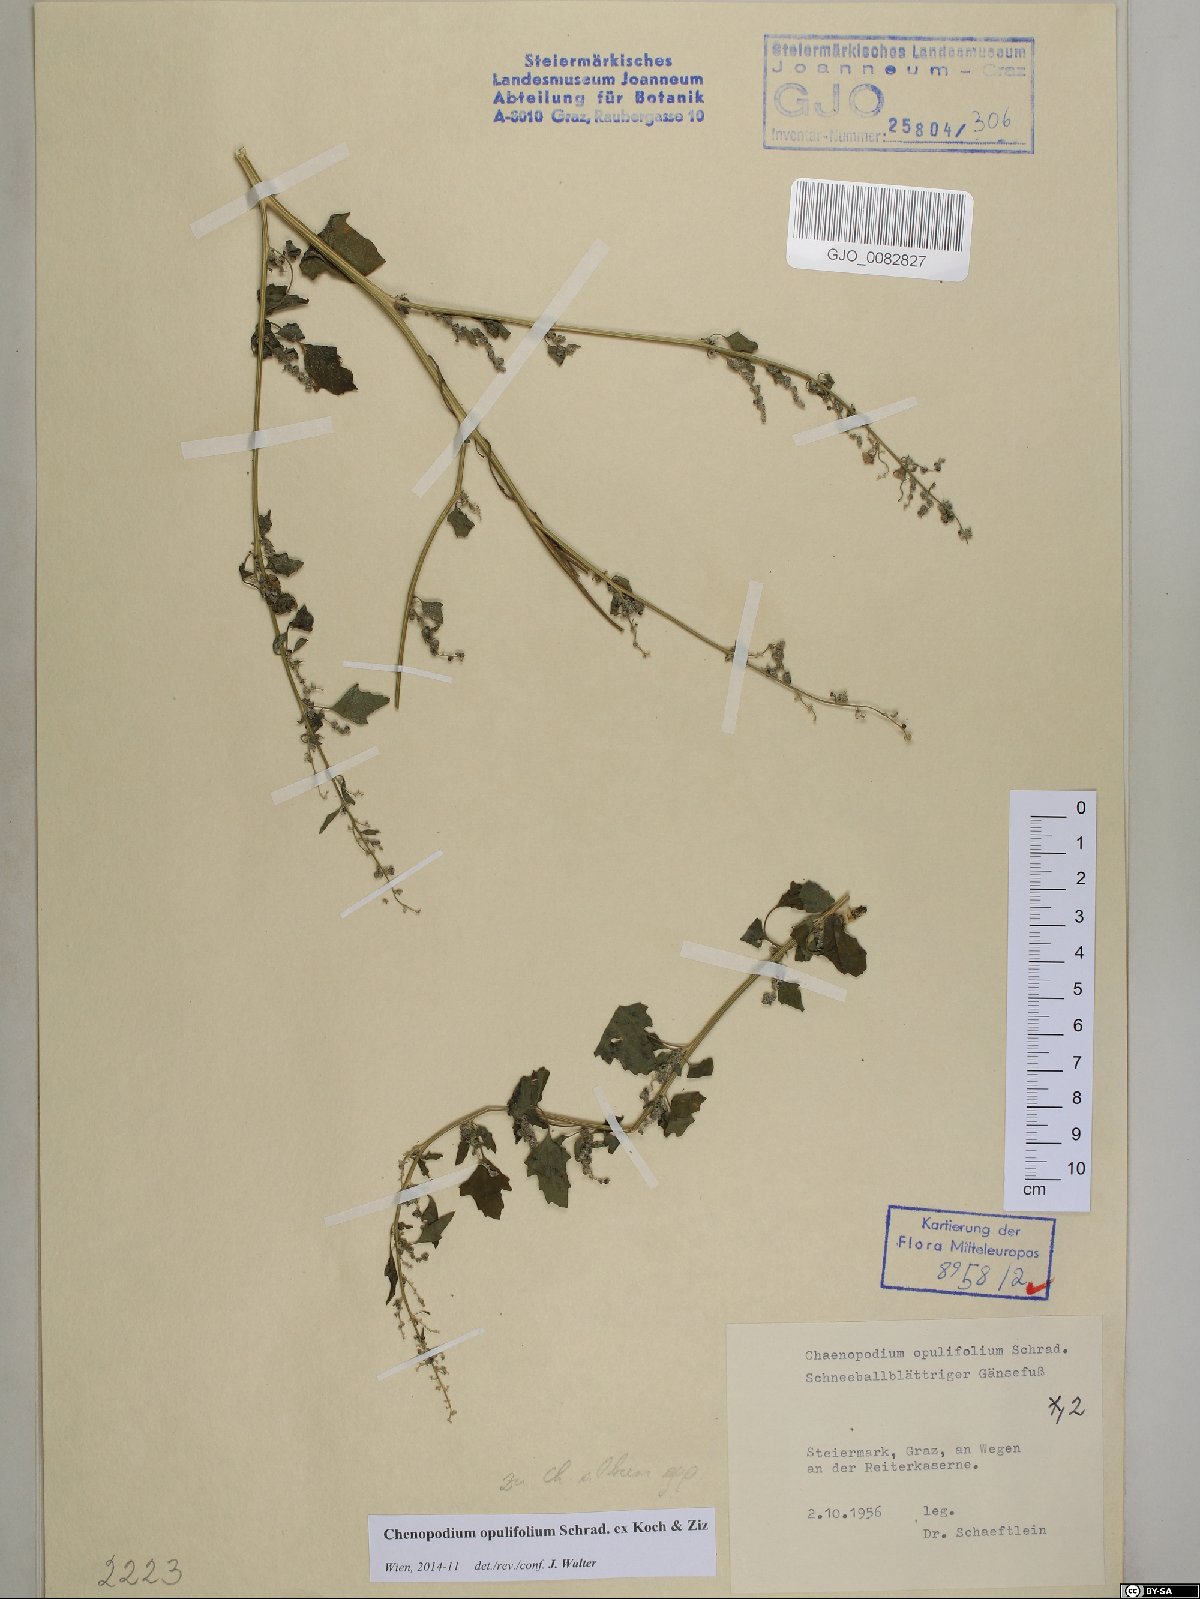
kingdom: Plantae
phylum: Tracheophyta
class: Magnoliopsida
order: Caryophyllales
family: Amaranthaceae
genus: Chenopodium
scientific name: Chenopodium opulifolium
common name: Grey goosefoot
